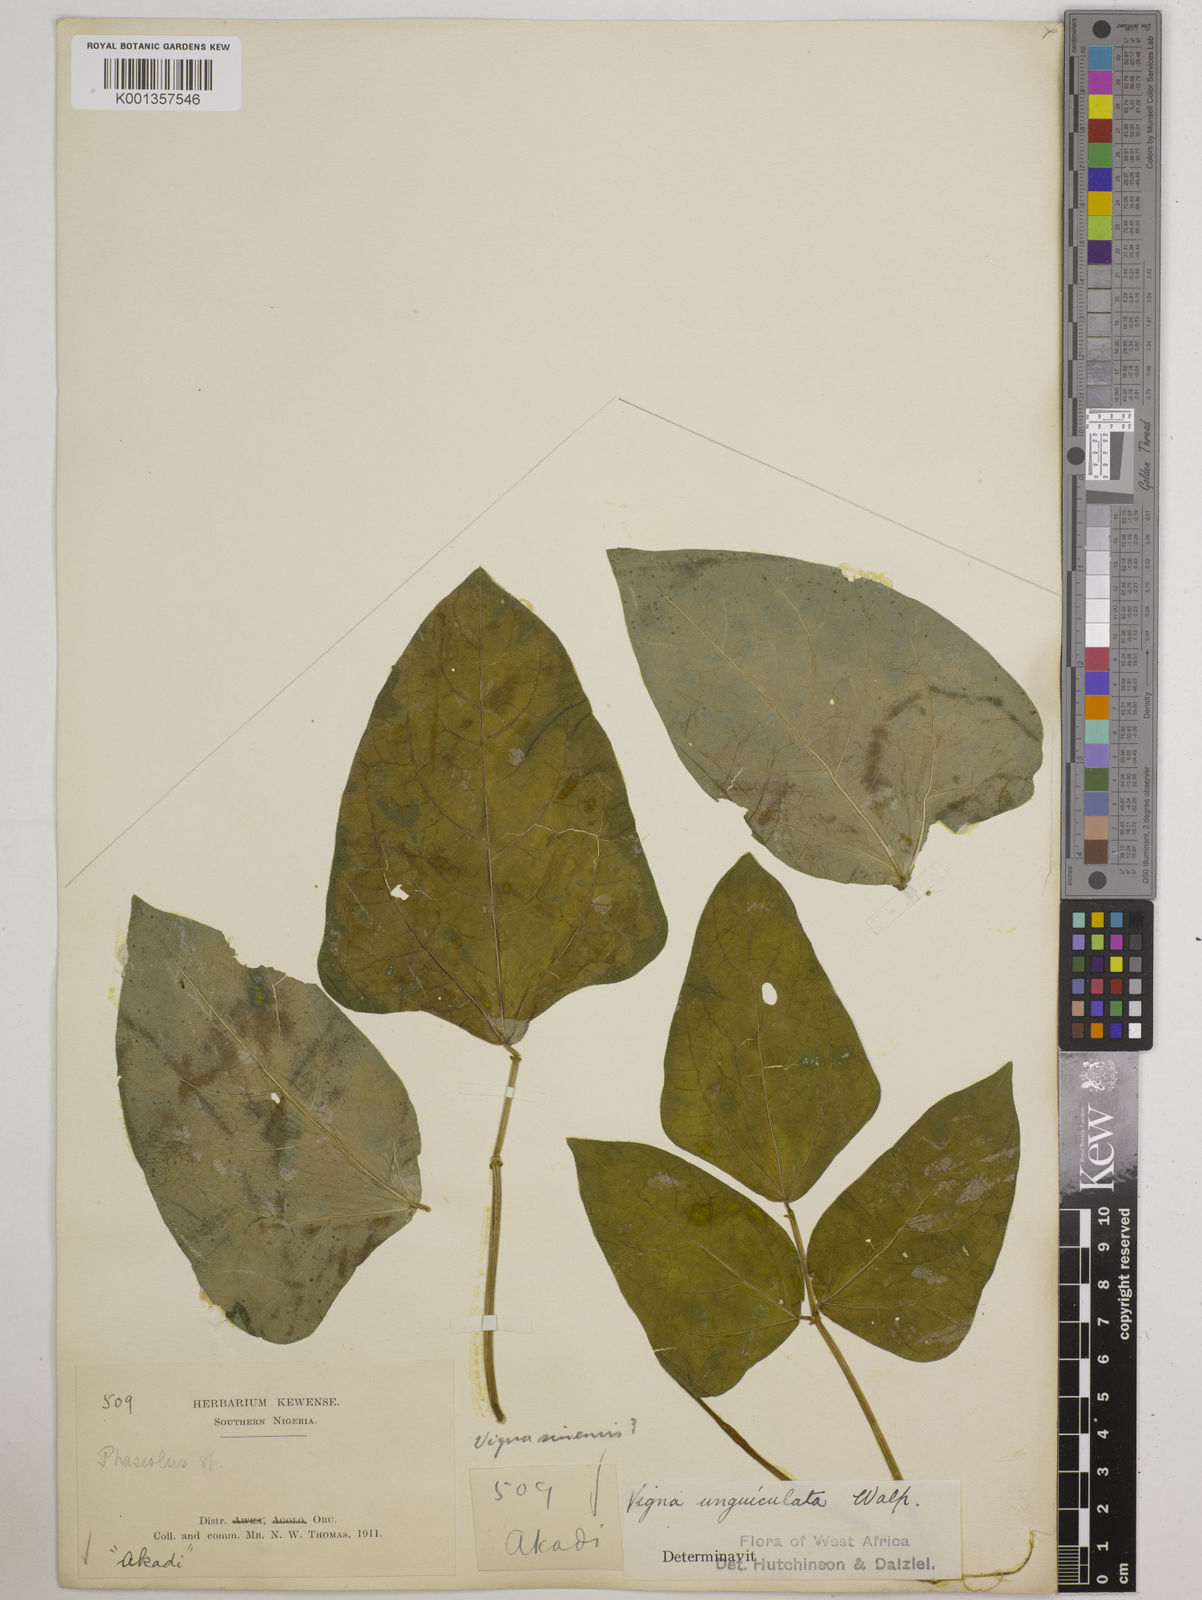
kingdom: Plantae
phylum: Tracheophyta
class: Magnoliopsida
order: Fabales
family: Fabaceae
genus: Vigna
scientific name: Vigna
